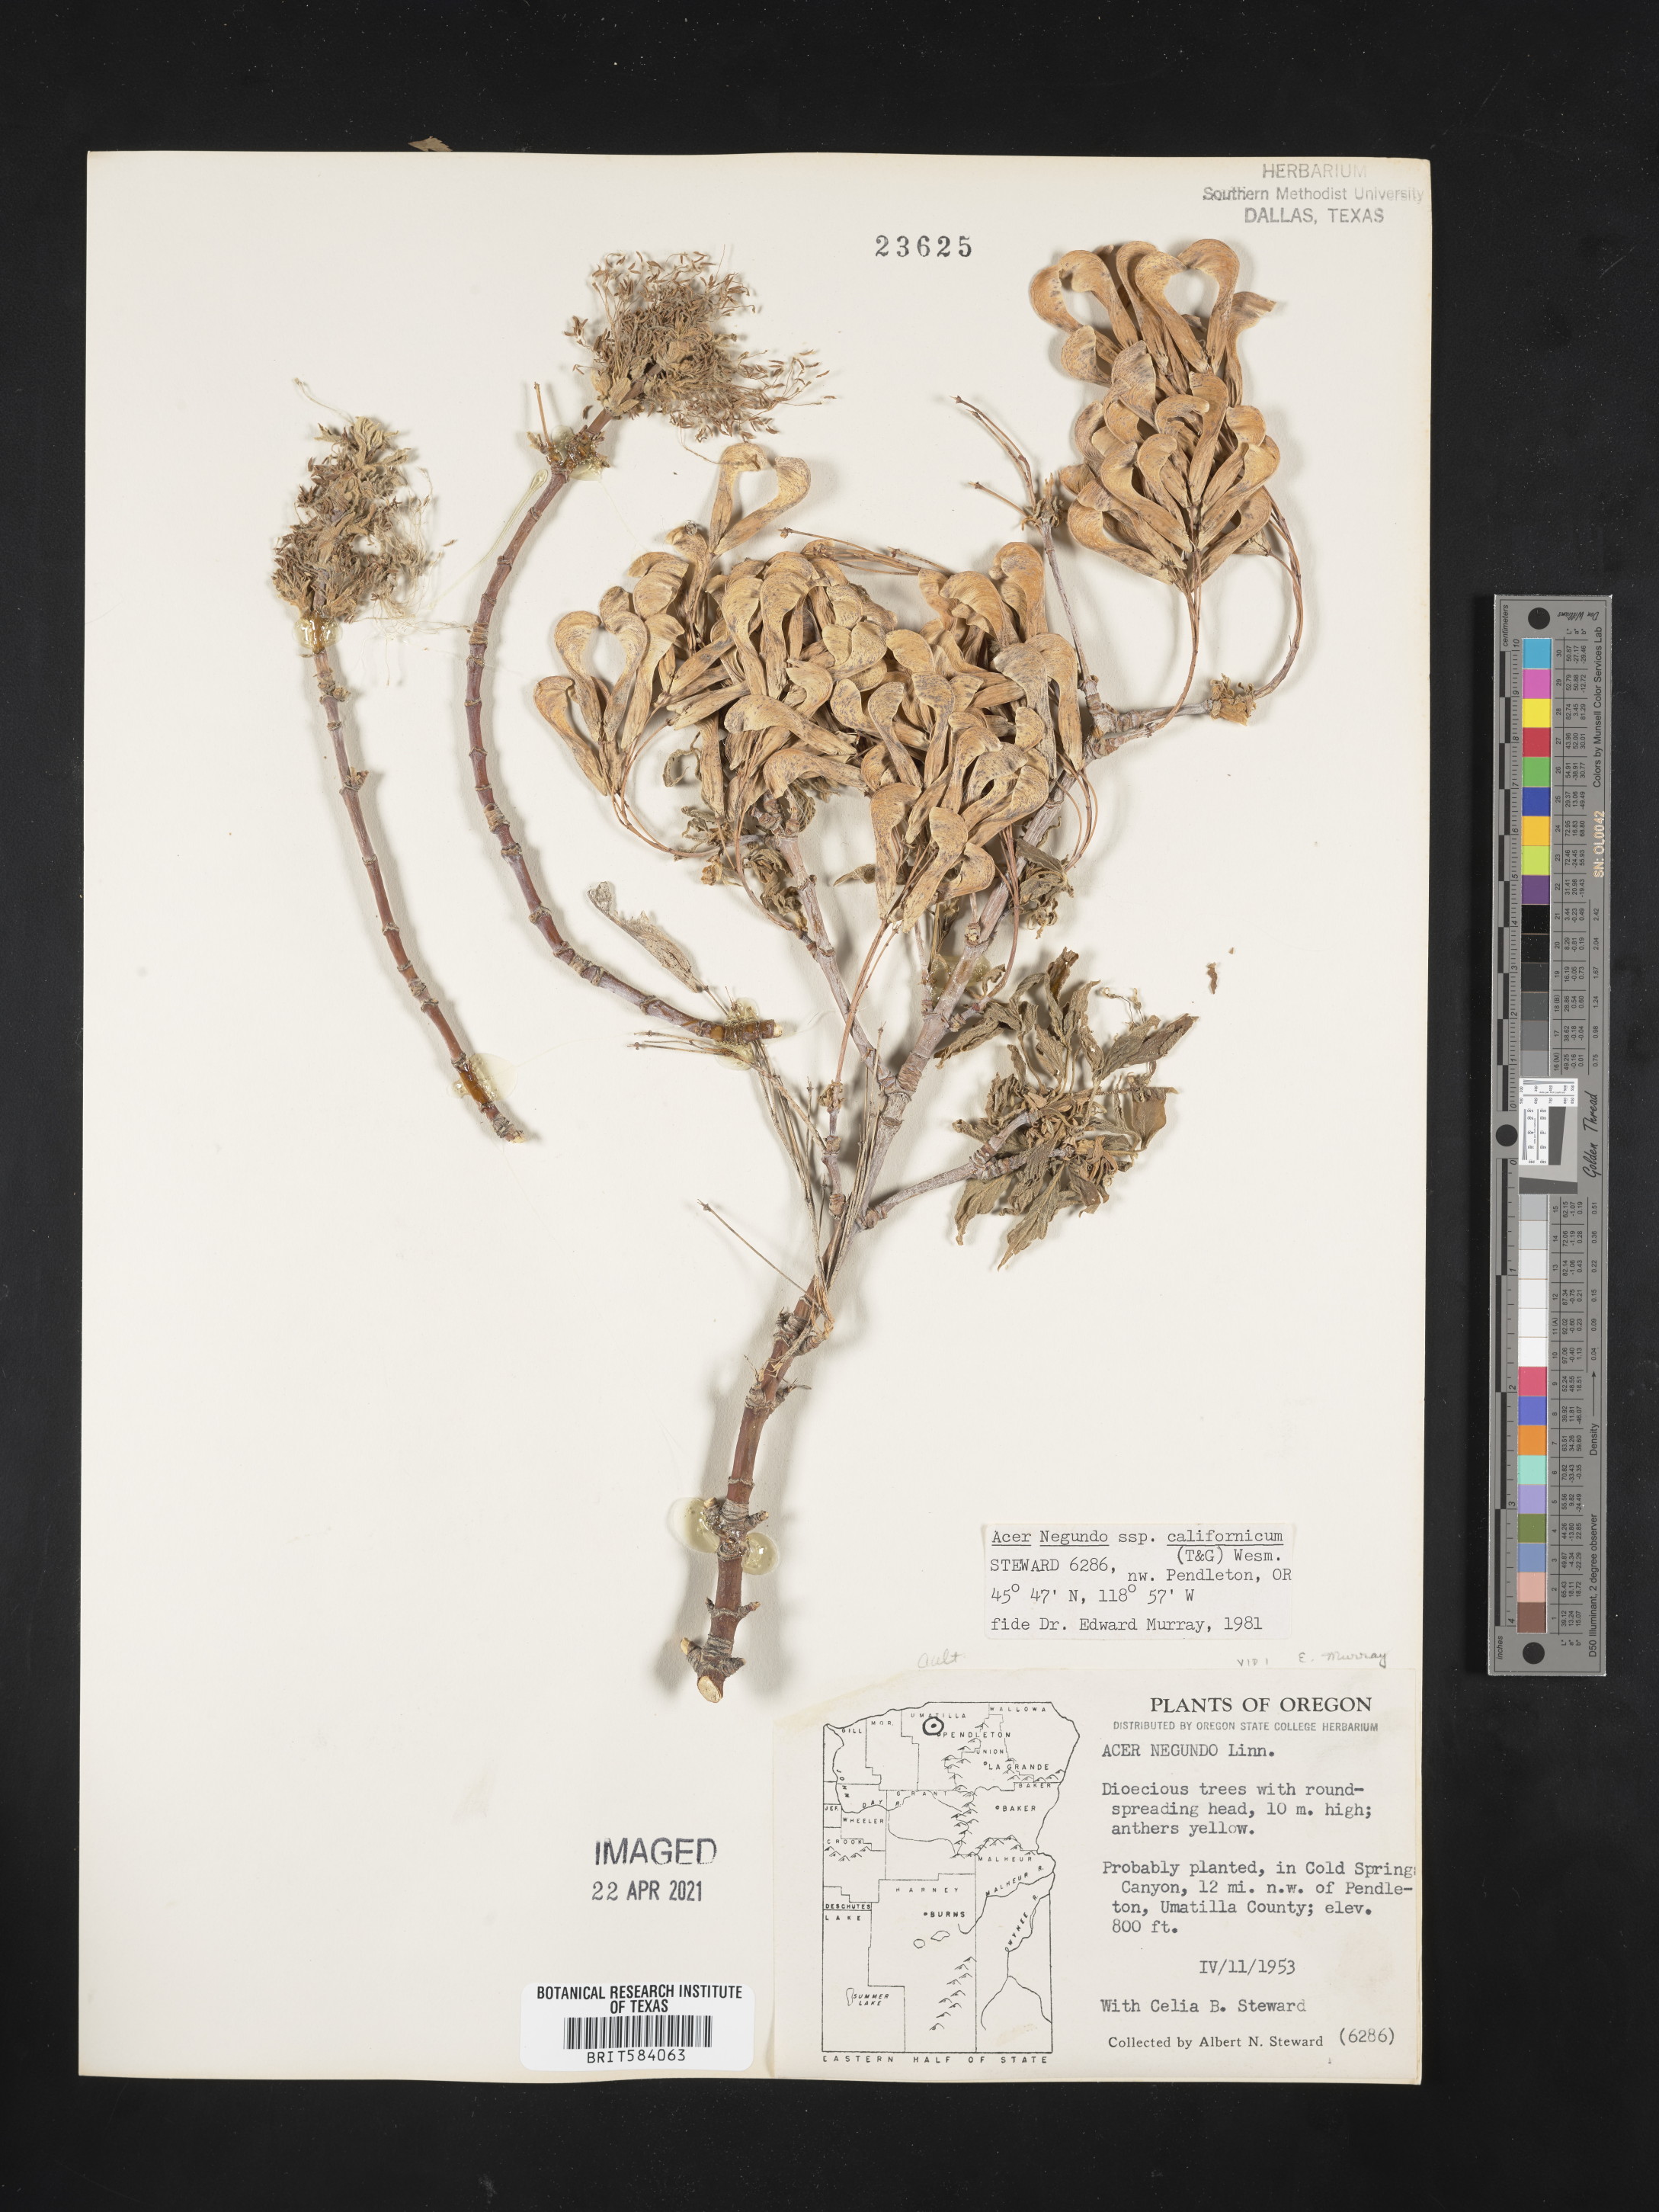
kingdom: Plantae
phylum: Tracheophyta
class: Magnoliopsida
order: Sapindales
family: Sapindaceae
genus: Acer
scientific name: Acer negundo
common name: Ashleaf maple
